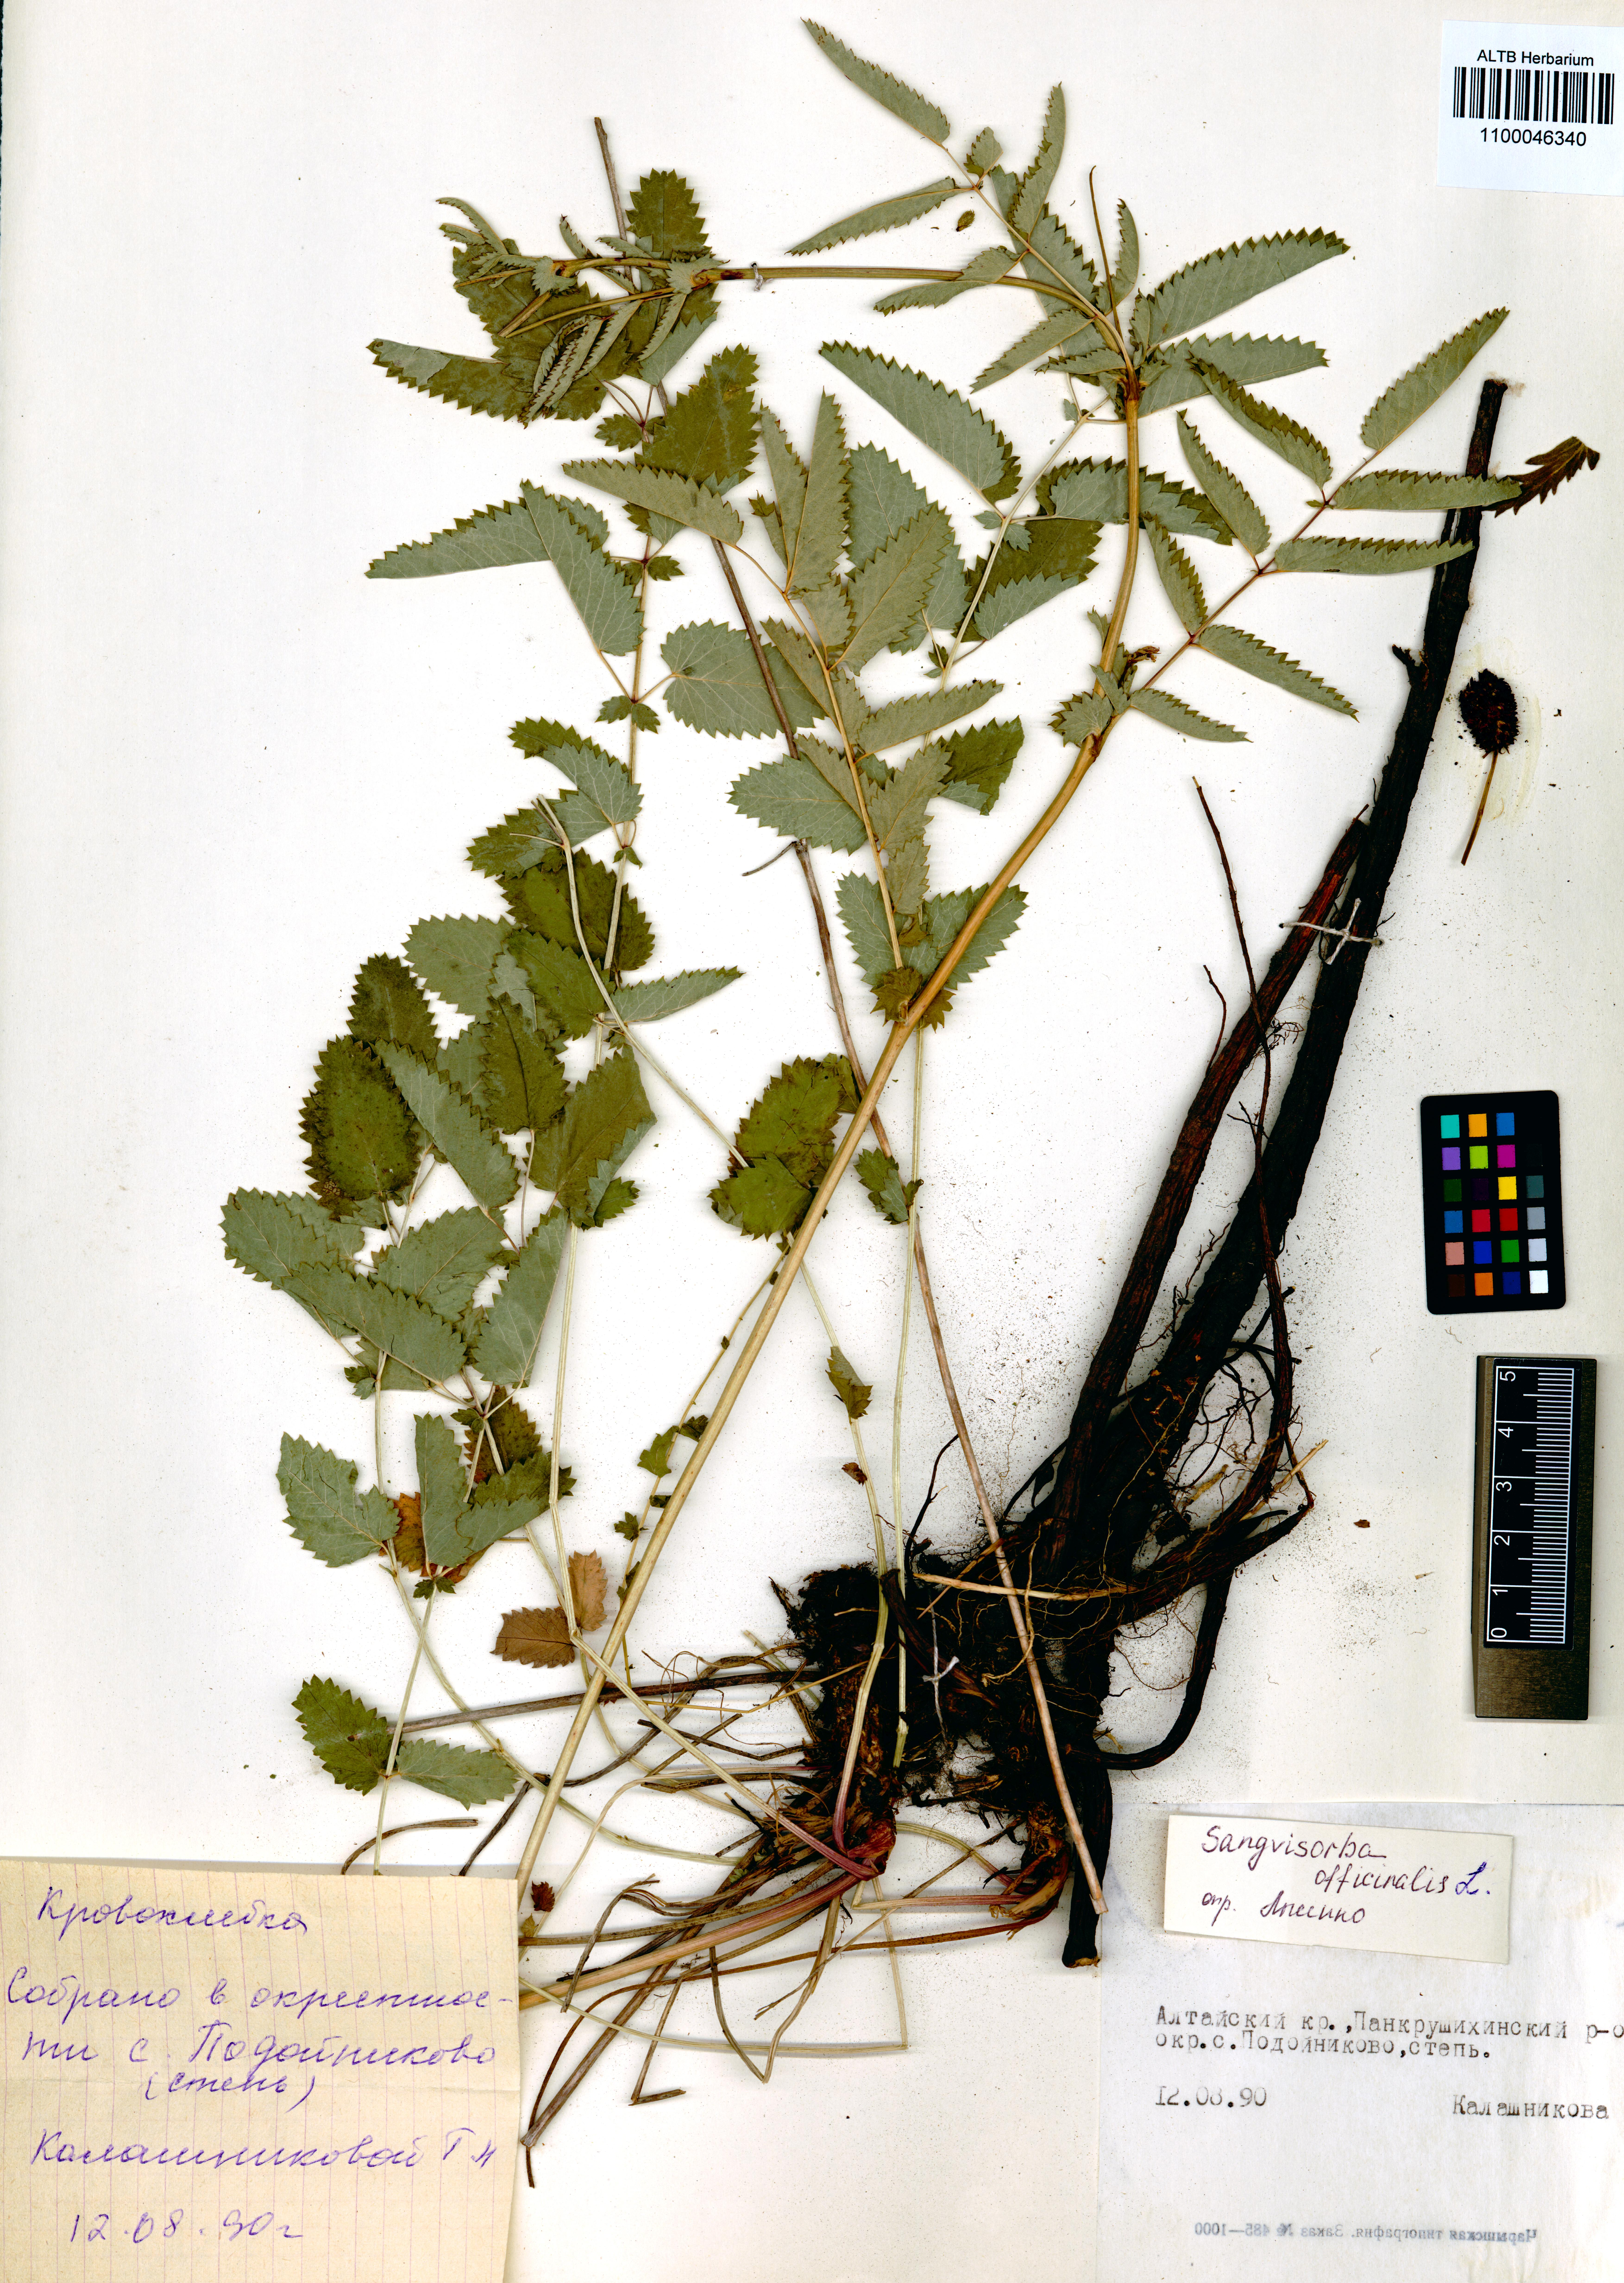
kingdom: Plantae
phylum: Tracheophyta
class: Magnoliopsida
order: Rosales
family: Rosaceae
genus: Sanguisorba
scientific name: Sanguisorba officinalis
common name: Great burnet
